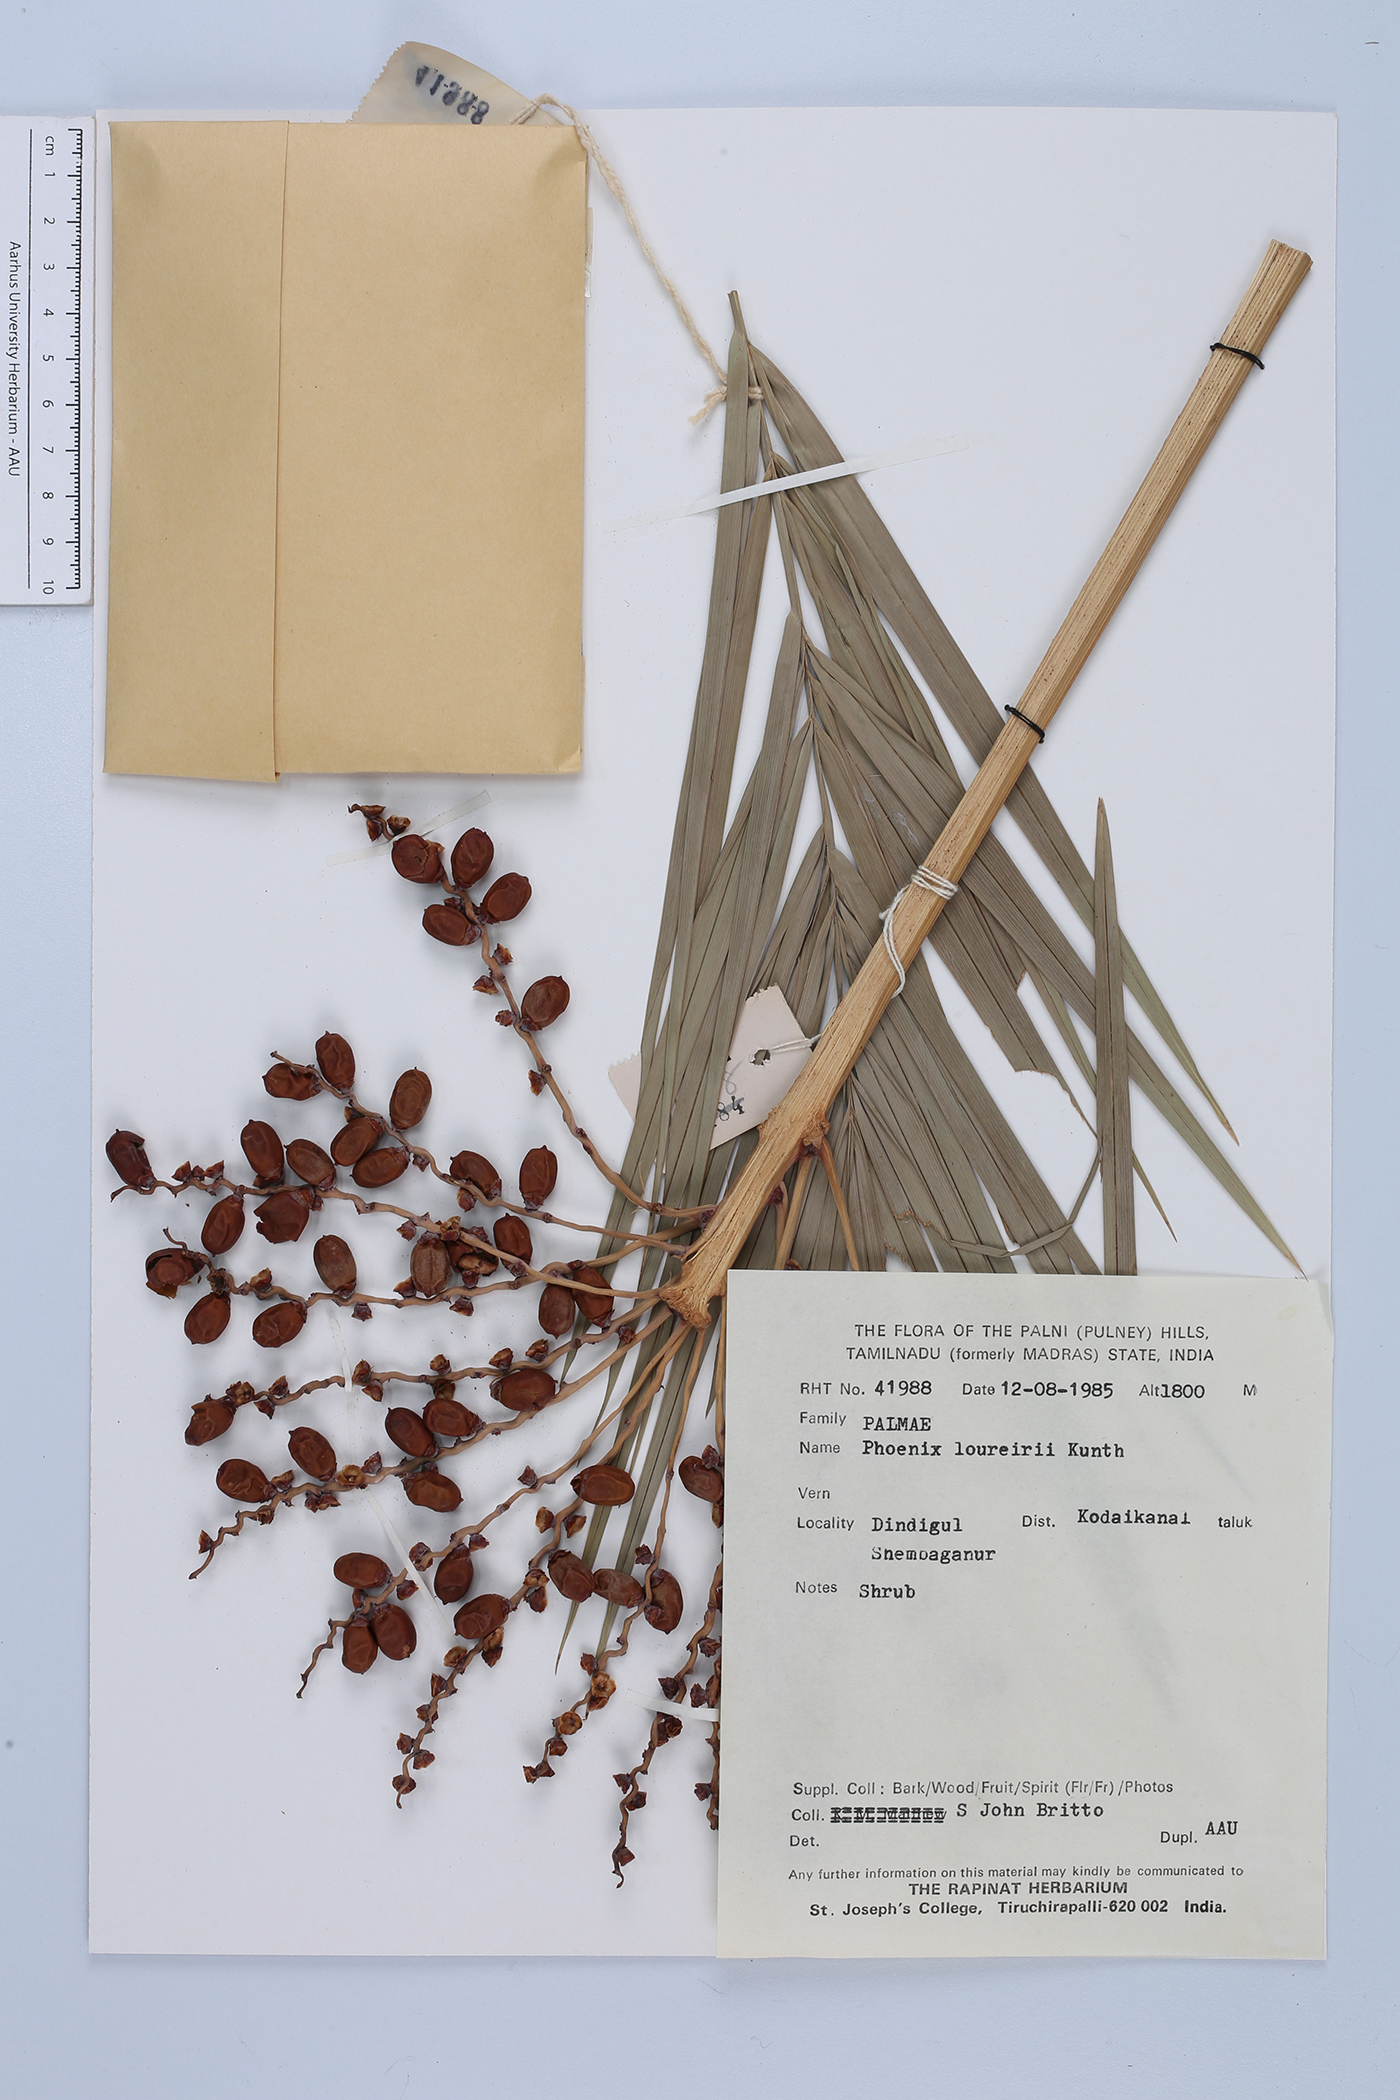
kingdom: Plantae
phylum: Tracheophyta
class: Liliopsida
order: Arecales
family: Arecaceae
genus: Phoenix
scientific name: Phoenix loureiroi
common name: Loureiro's palm
